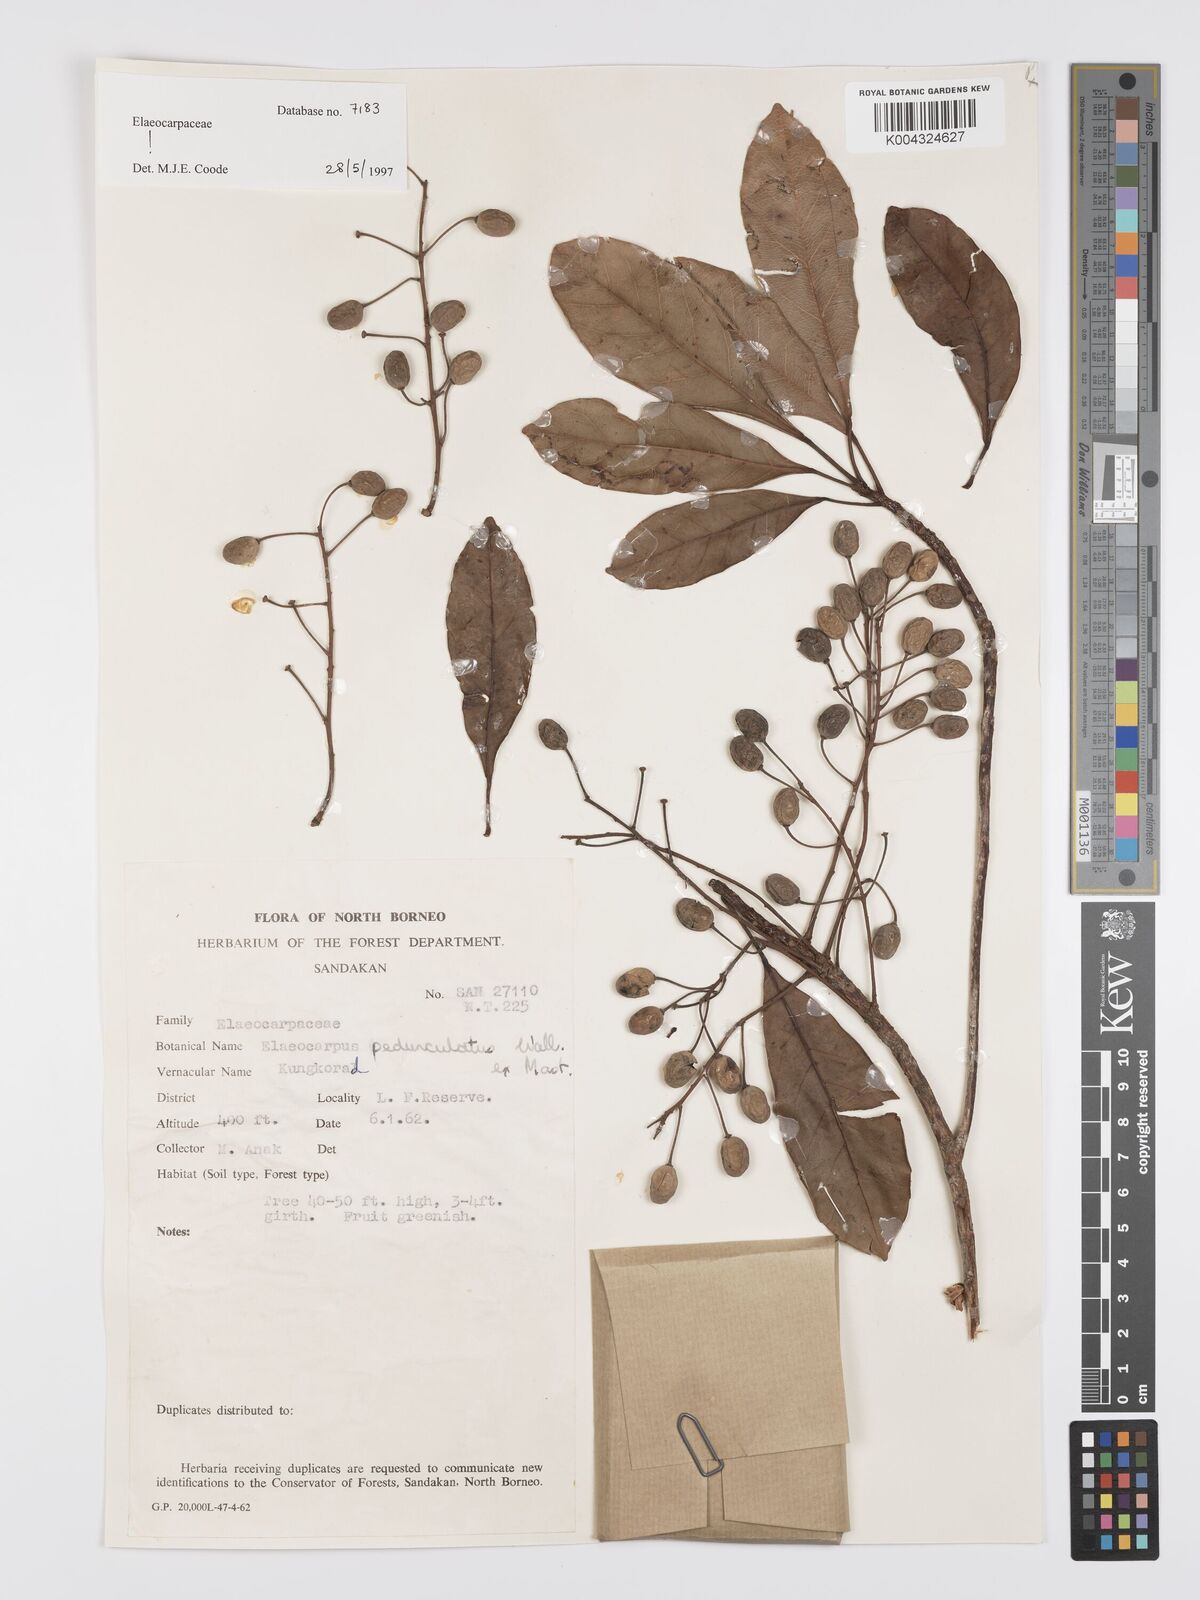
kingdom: Plantae
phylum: Tracheophyta
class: Magnoliopsida
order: Oxalidales
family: Elaeocarpaceae
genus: Elaeocarpus
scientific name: Elaeocarpus pedunculatus
